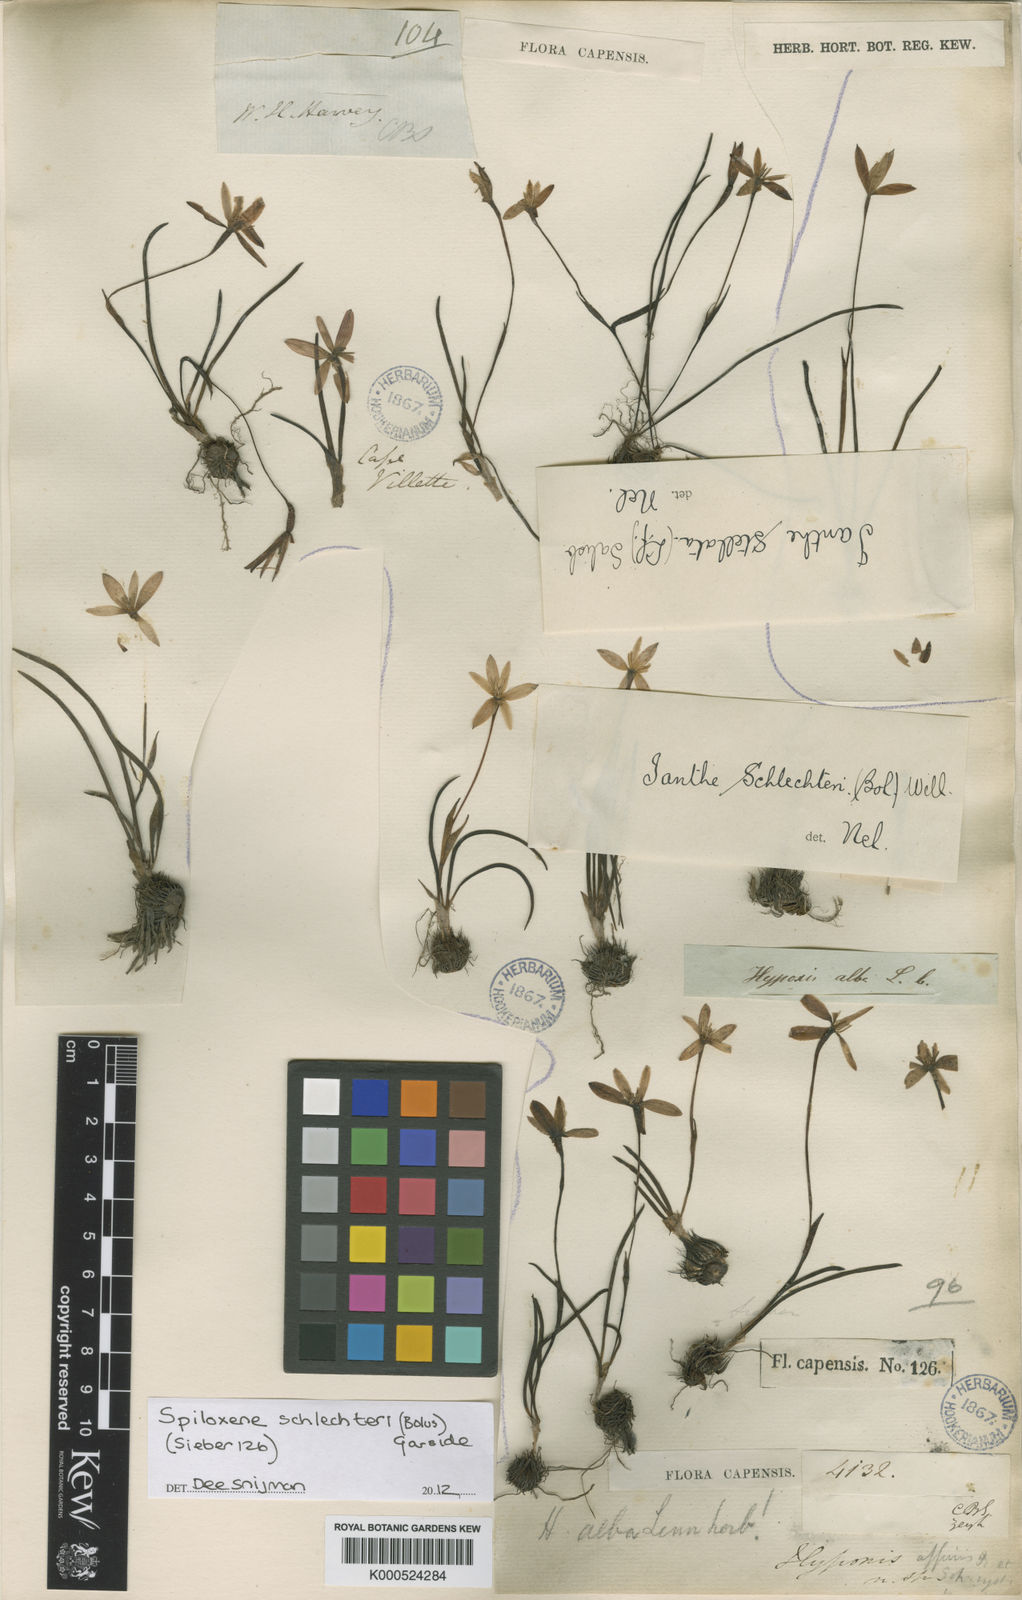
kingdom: Plantae
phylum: Tracheophyta
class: Liliopsida
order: Asparagales
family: Hypoxidaceae
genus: Pauridia
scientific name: Pauridia affinis
